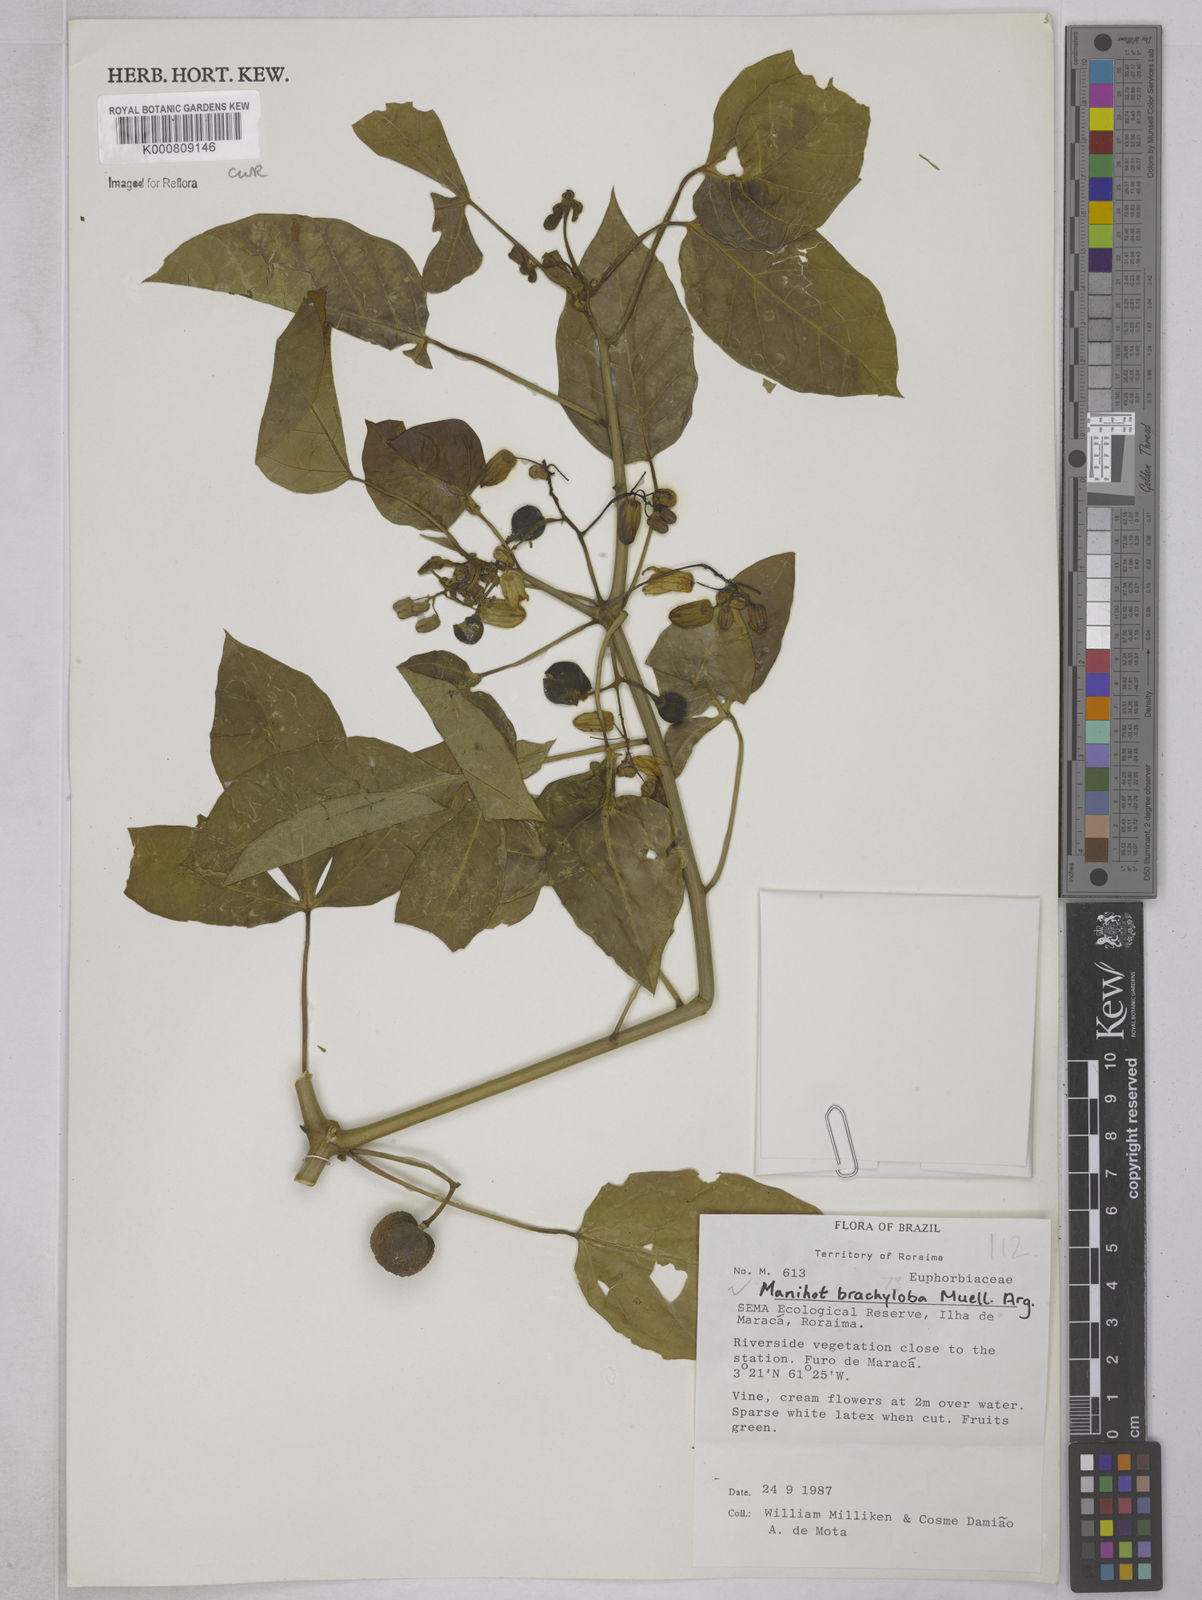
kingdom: Plantae
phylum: Tracheophyta
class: Magnoliopsida
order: Malpighiales
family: Euphorbiaceae
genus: Manihot
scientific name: Manihot brachyloba
